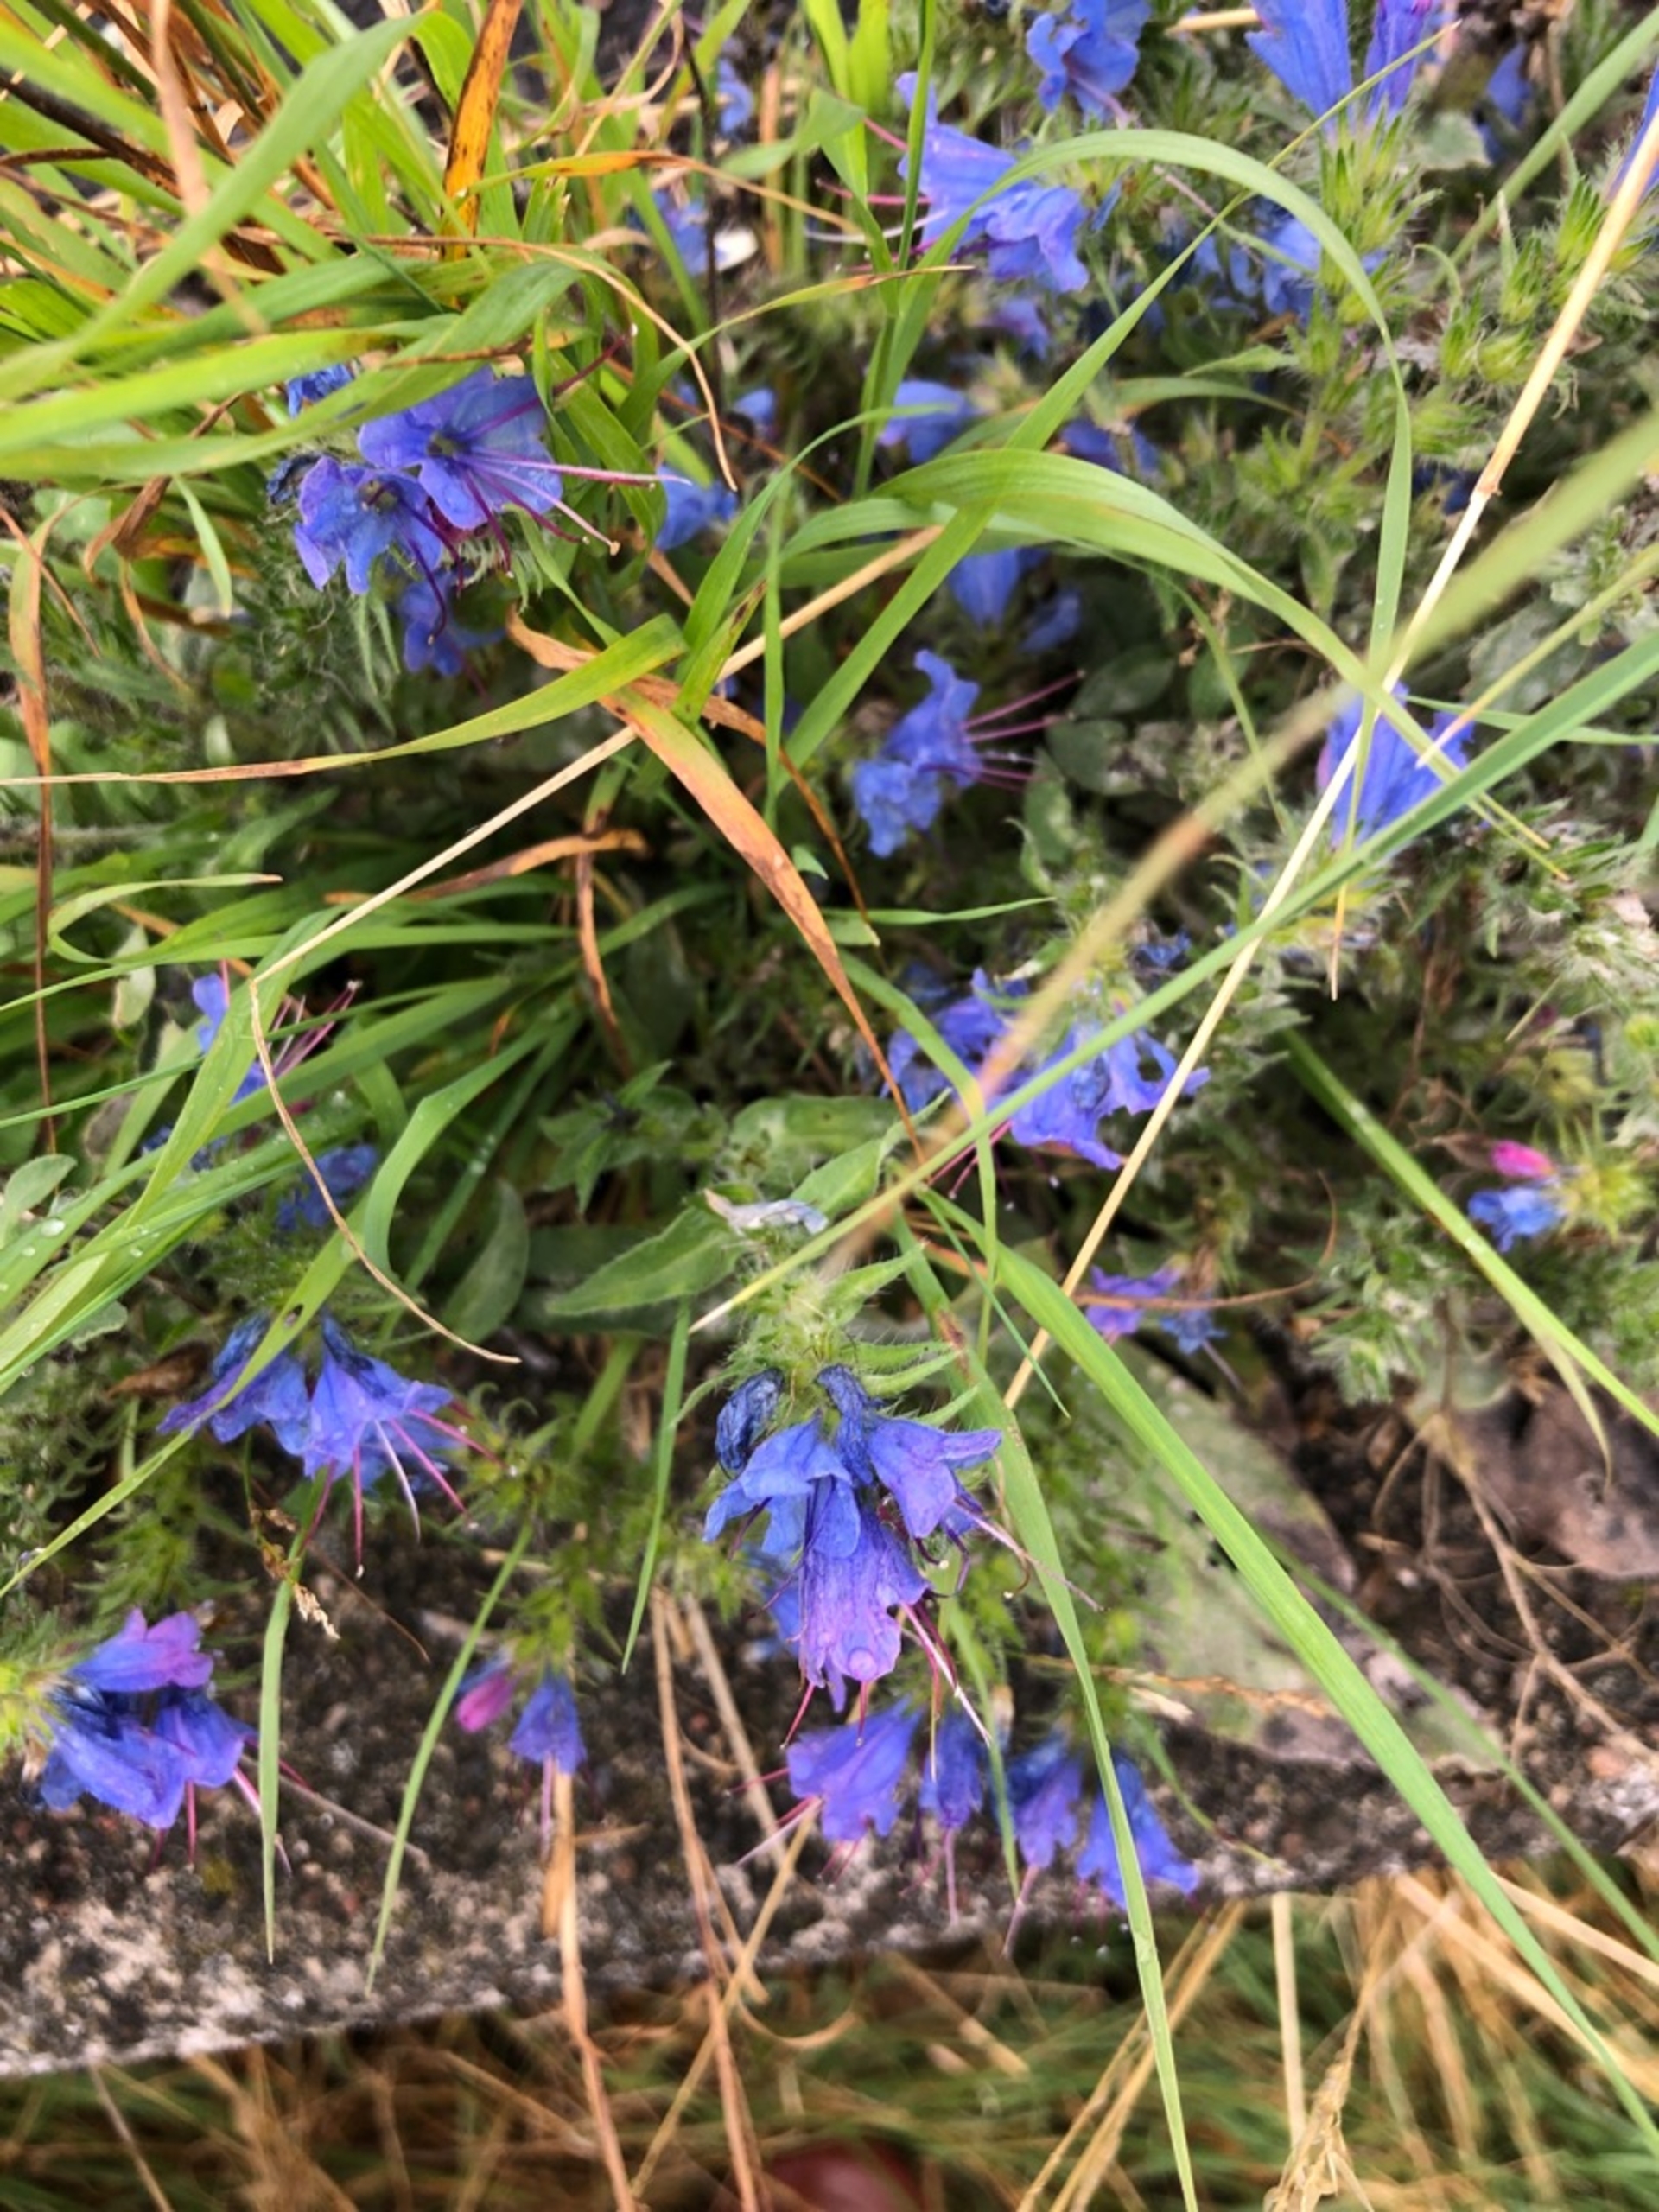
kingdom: Plantae
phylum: Tracheophyta
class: Magnoliopsida
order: Boraginales
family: Boraginaceae
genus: Echium
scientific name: Echium vulgare
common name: Slangehoved
